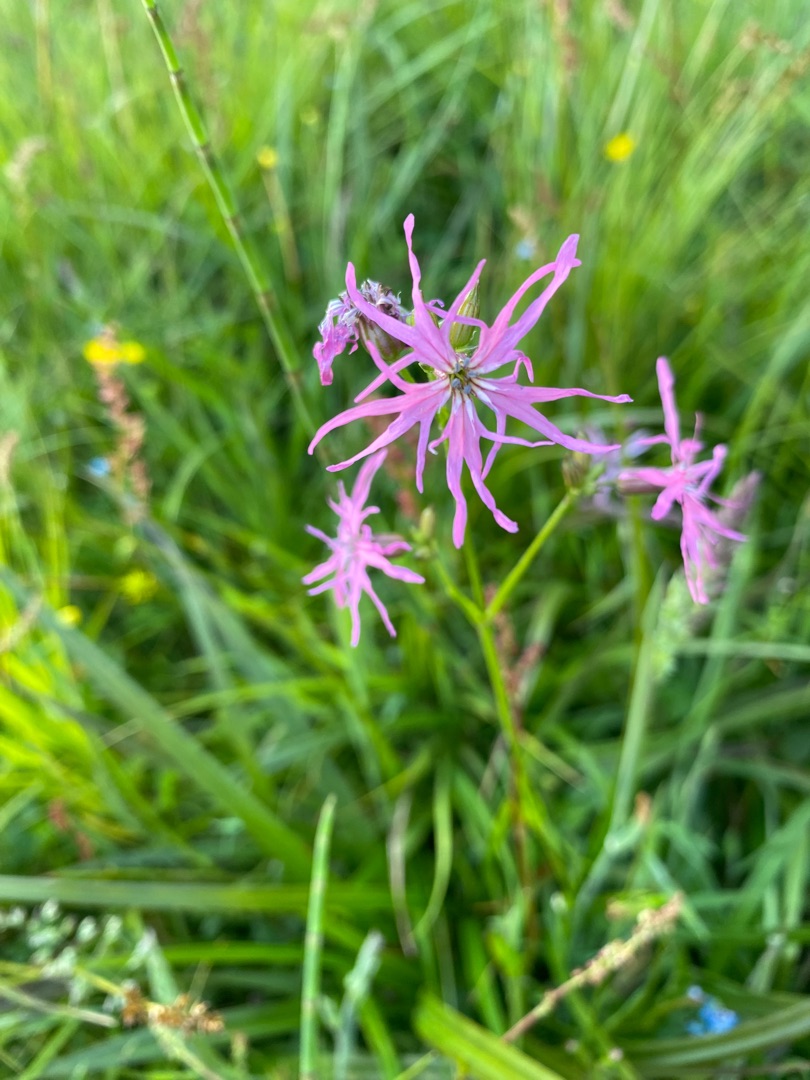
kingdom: Plantae
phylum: Tracheophyta
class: Magnoliopsida
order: Caryophyllales
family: Caryophyllaceae
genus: Silene
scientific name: Silene flos-cuculi
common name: Trævlekrone
